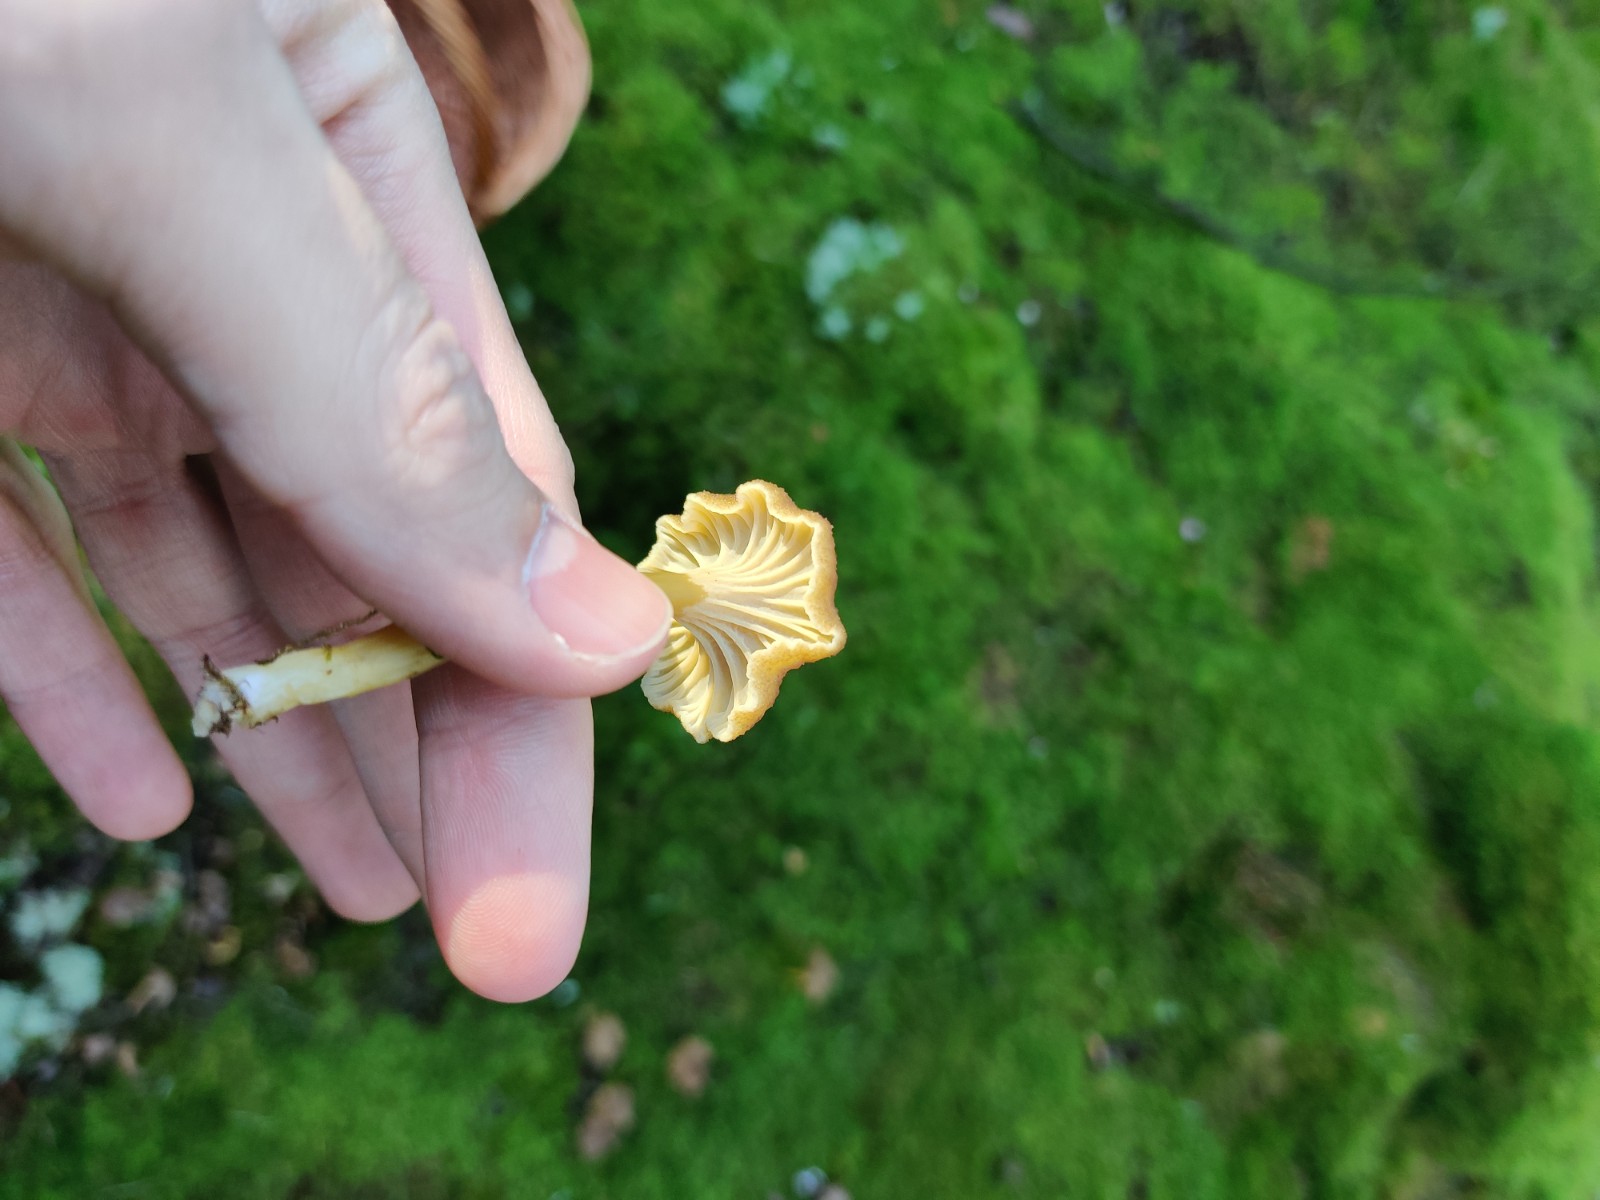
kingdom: Fungi
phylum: Basidiomycota
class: Agaricomycetes
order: Cantharellales
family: Hydnaceae
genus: Craterellus
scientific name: Craterellus tubaeformis
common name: tragt-kantarel
